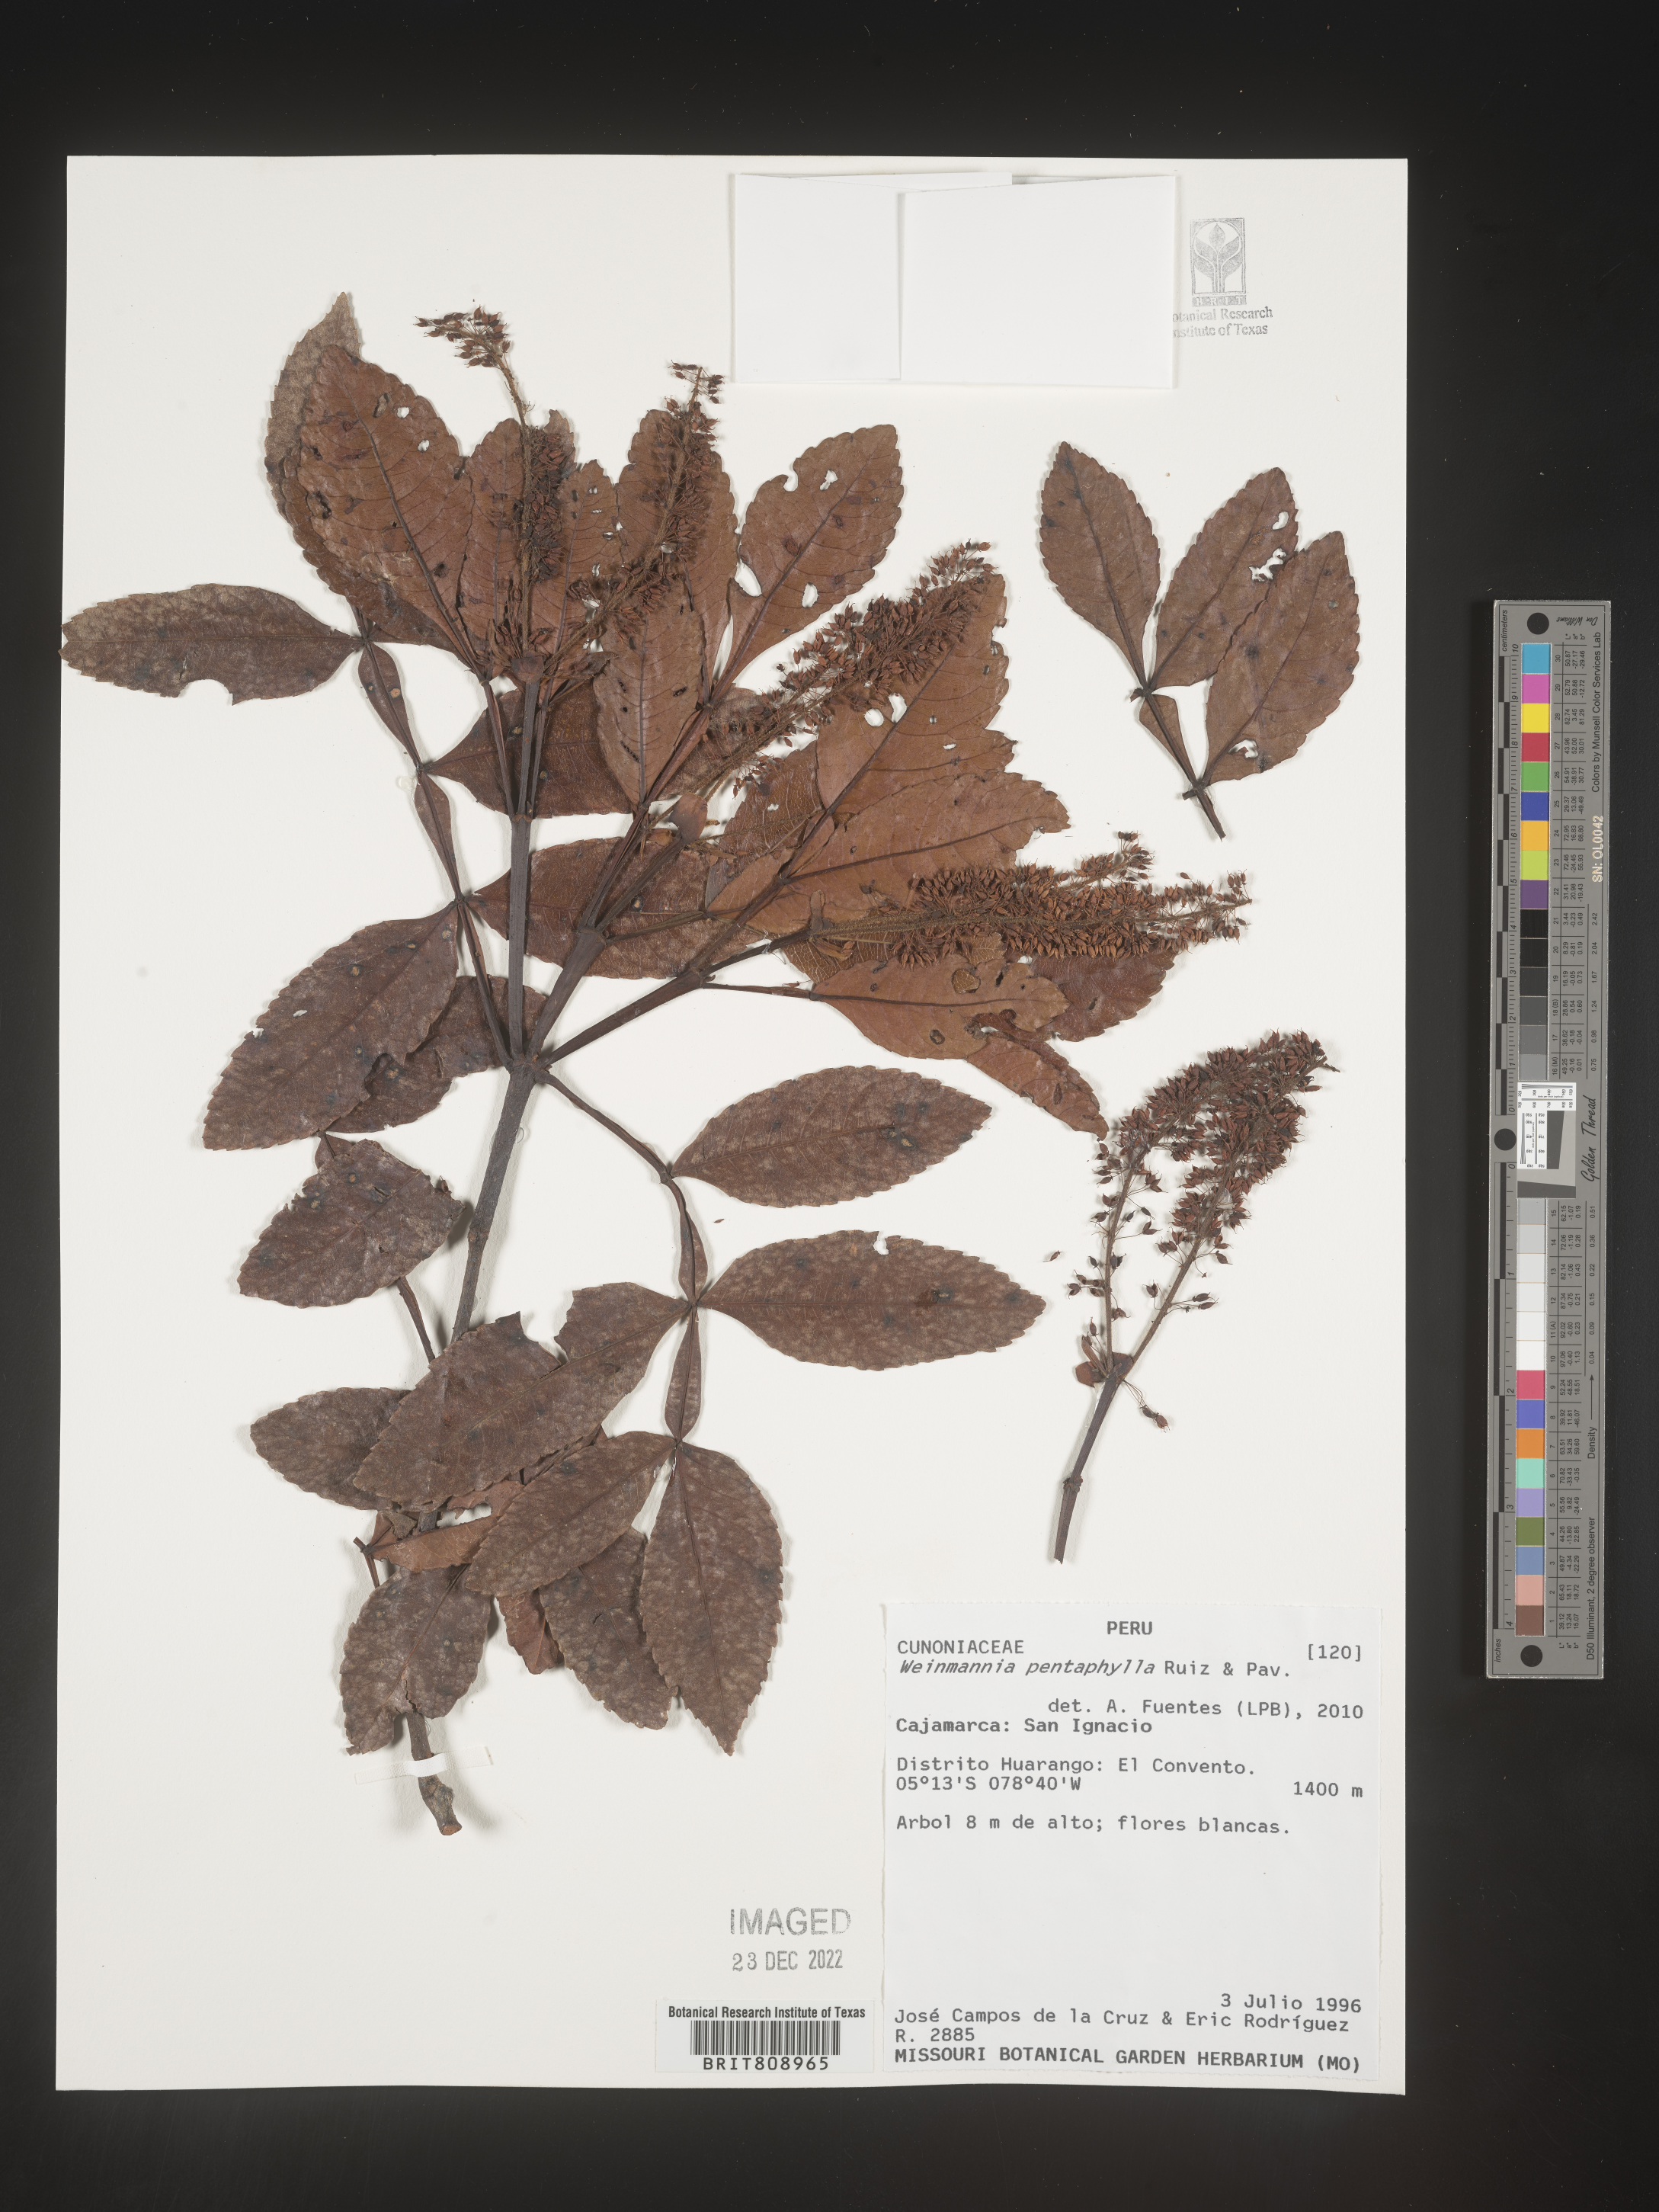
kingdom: Plantae
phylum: Tracheophyta
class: Magnoliopsida
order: Oxalidales
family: Cunoniaceae
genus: Weinmannia
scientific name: Weinmannia
